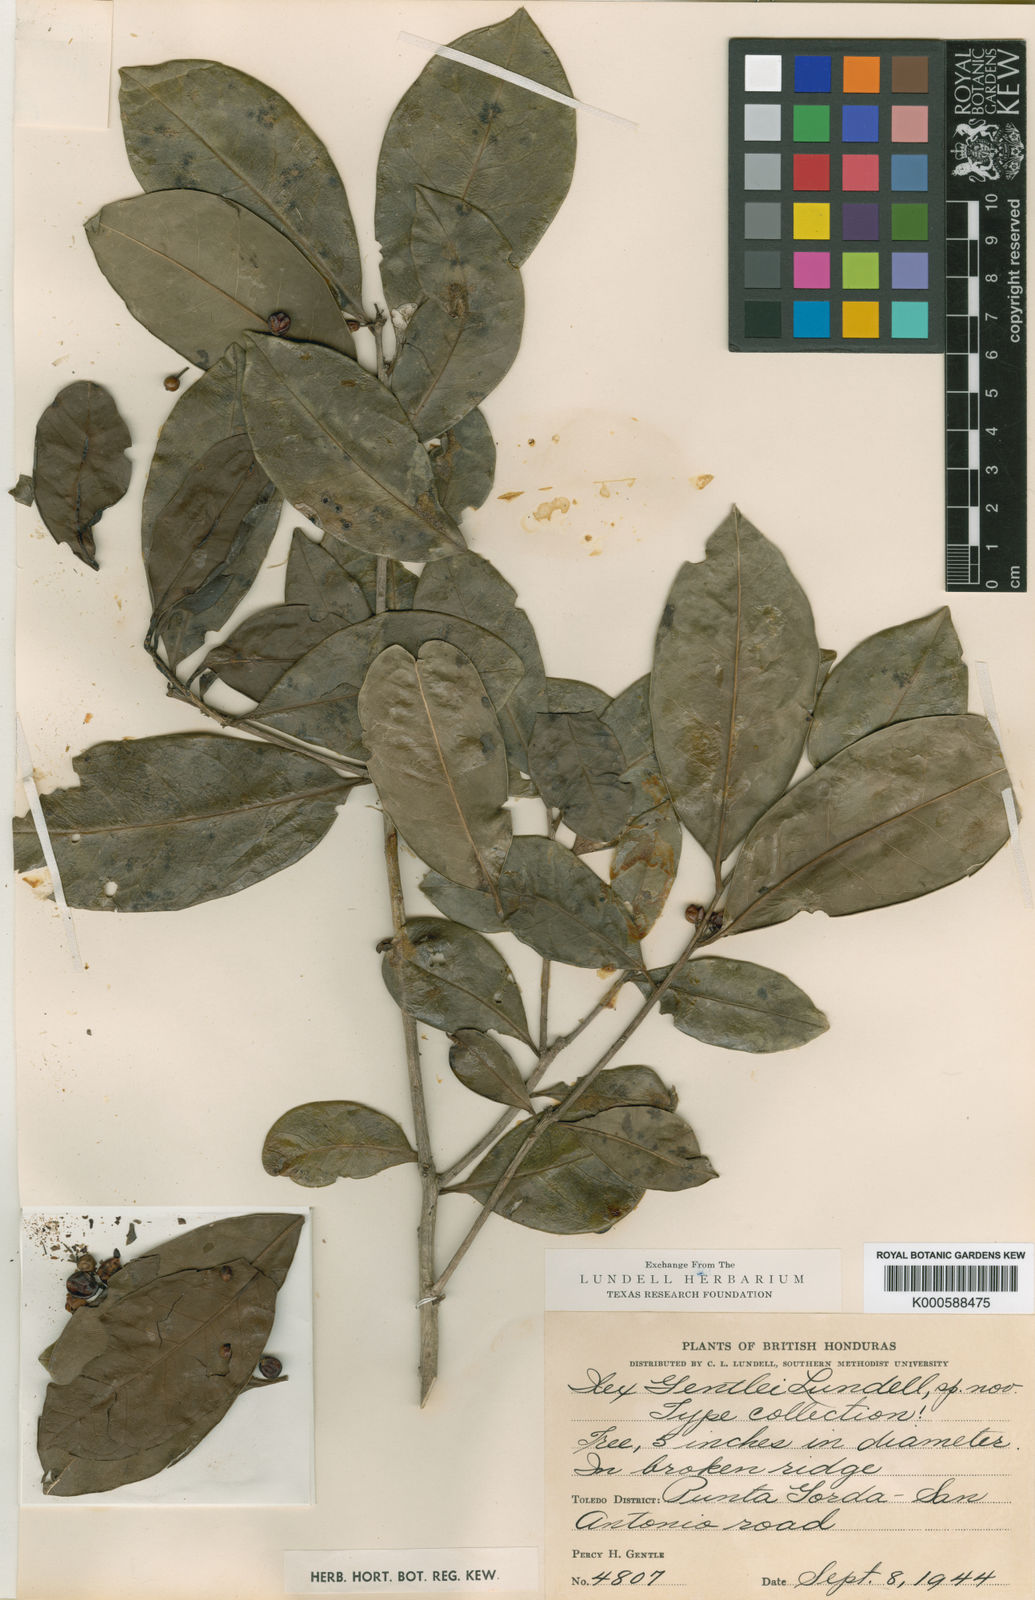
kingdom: Plantae
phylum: Tracheophyta
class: Magnoliopsida
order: Aquifoliales
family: Aquifoliaceae
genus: Ilex
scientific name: Ilex guianensis
